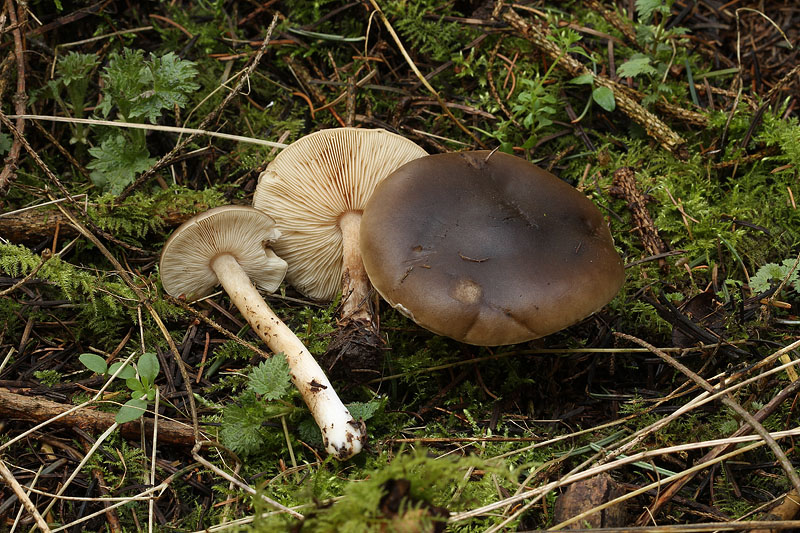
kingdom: Fungi
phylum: Basidiomycota
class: Agaricomycetes
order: Agaricales
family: Tricholomataceae
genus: Melanoleuca
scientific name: Melanoleuca cognata
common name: gyldengrå munkehat
